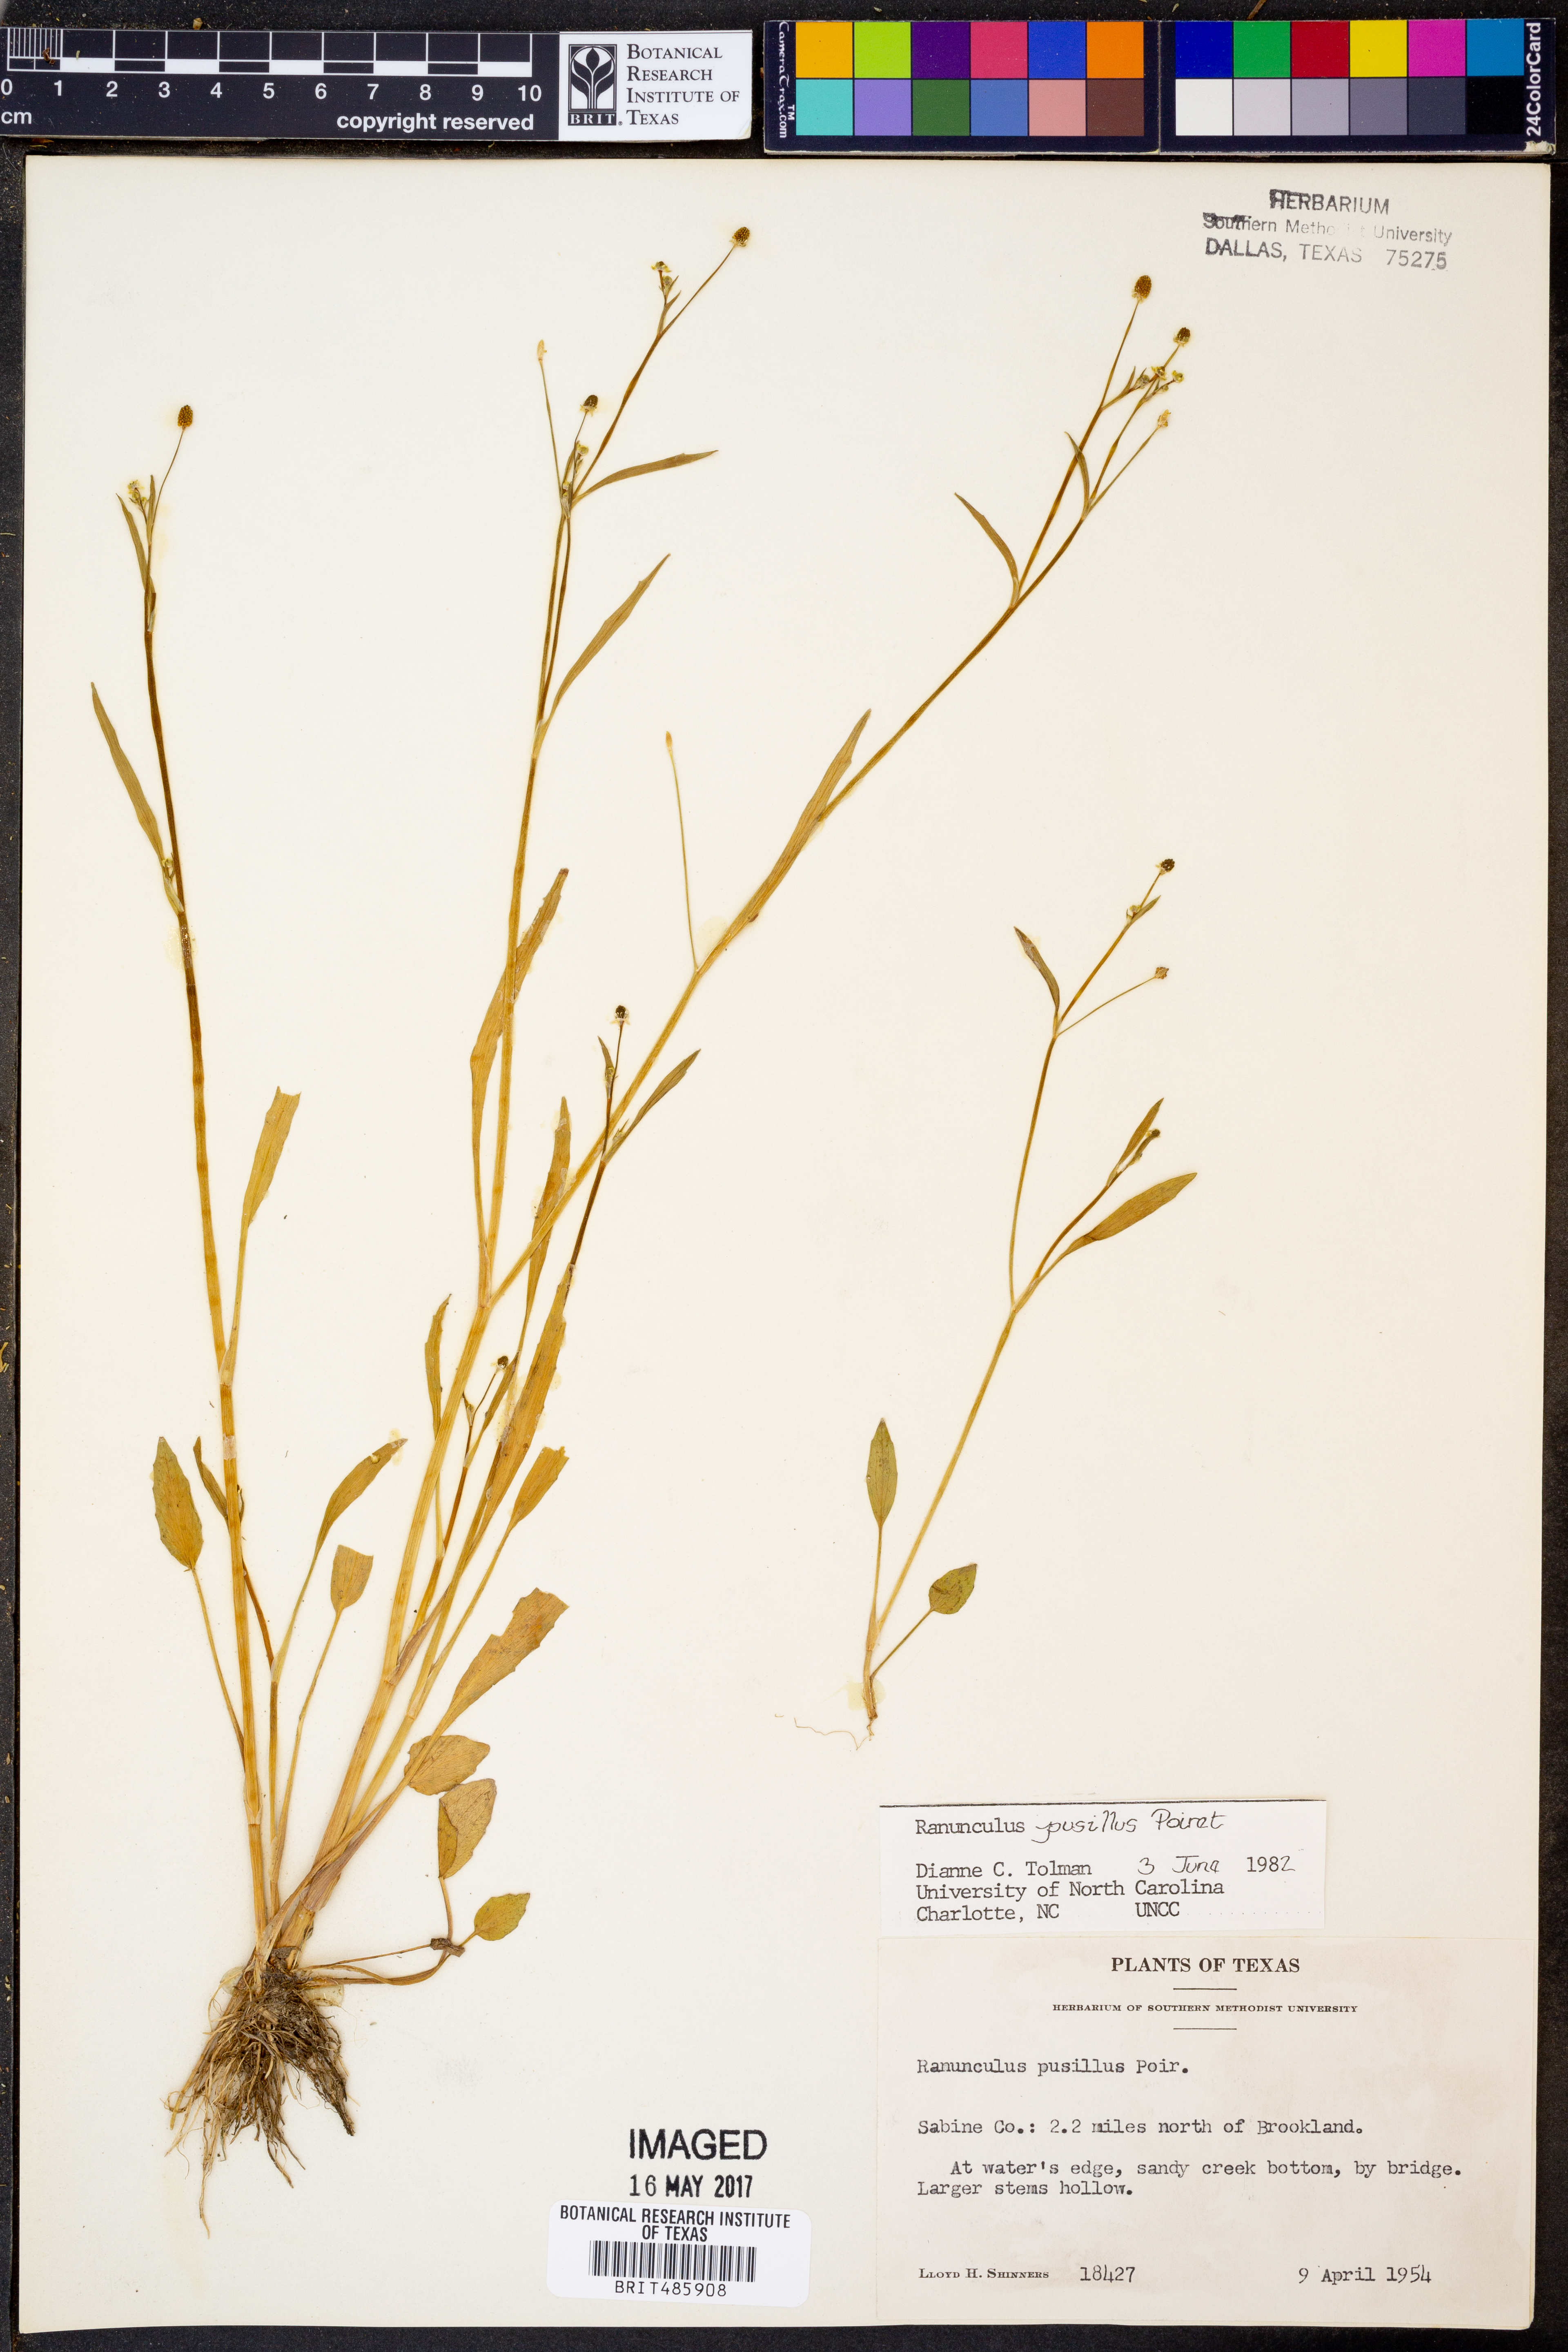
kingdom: Plantae
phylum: Tracheophyta
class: Magnoliopsida
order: Ranunculales
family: Ranunculaceae
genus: Ranunculus
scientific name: Ranunculus pusillus
